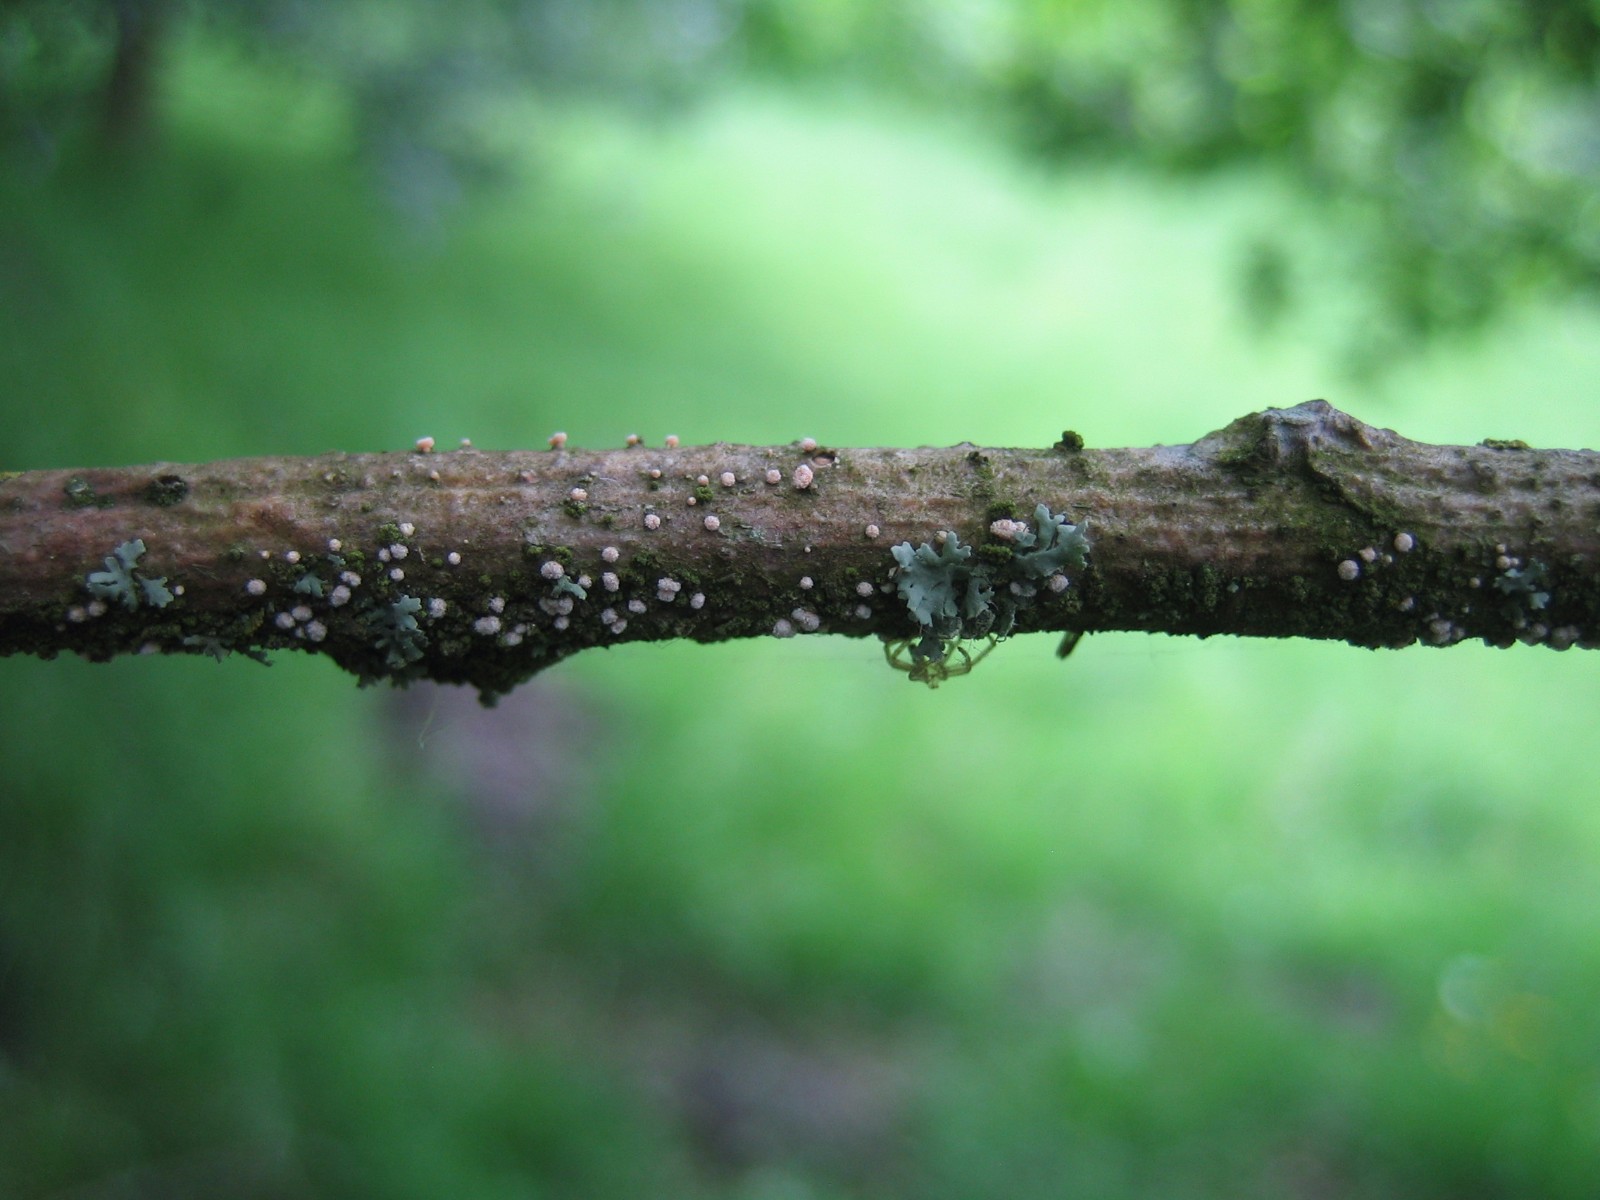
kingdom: Fungi
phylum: Ascomycota
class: Leotiomycetes
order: Helotiales
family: Lachnaceae
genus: Capitotricha
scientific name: Capitotricha bicolor
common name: prægtig frynseskive
